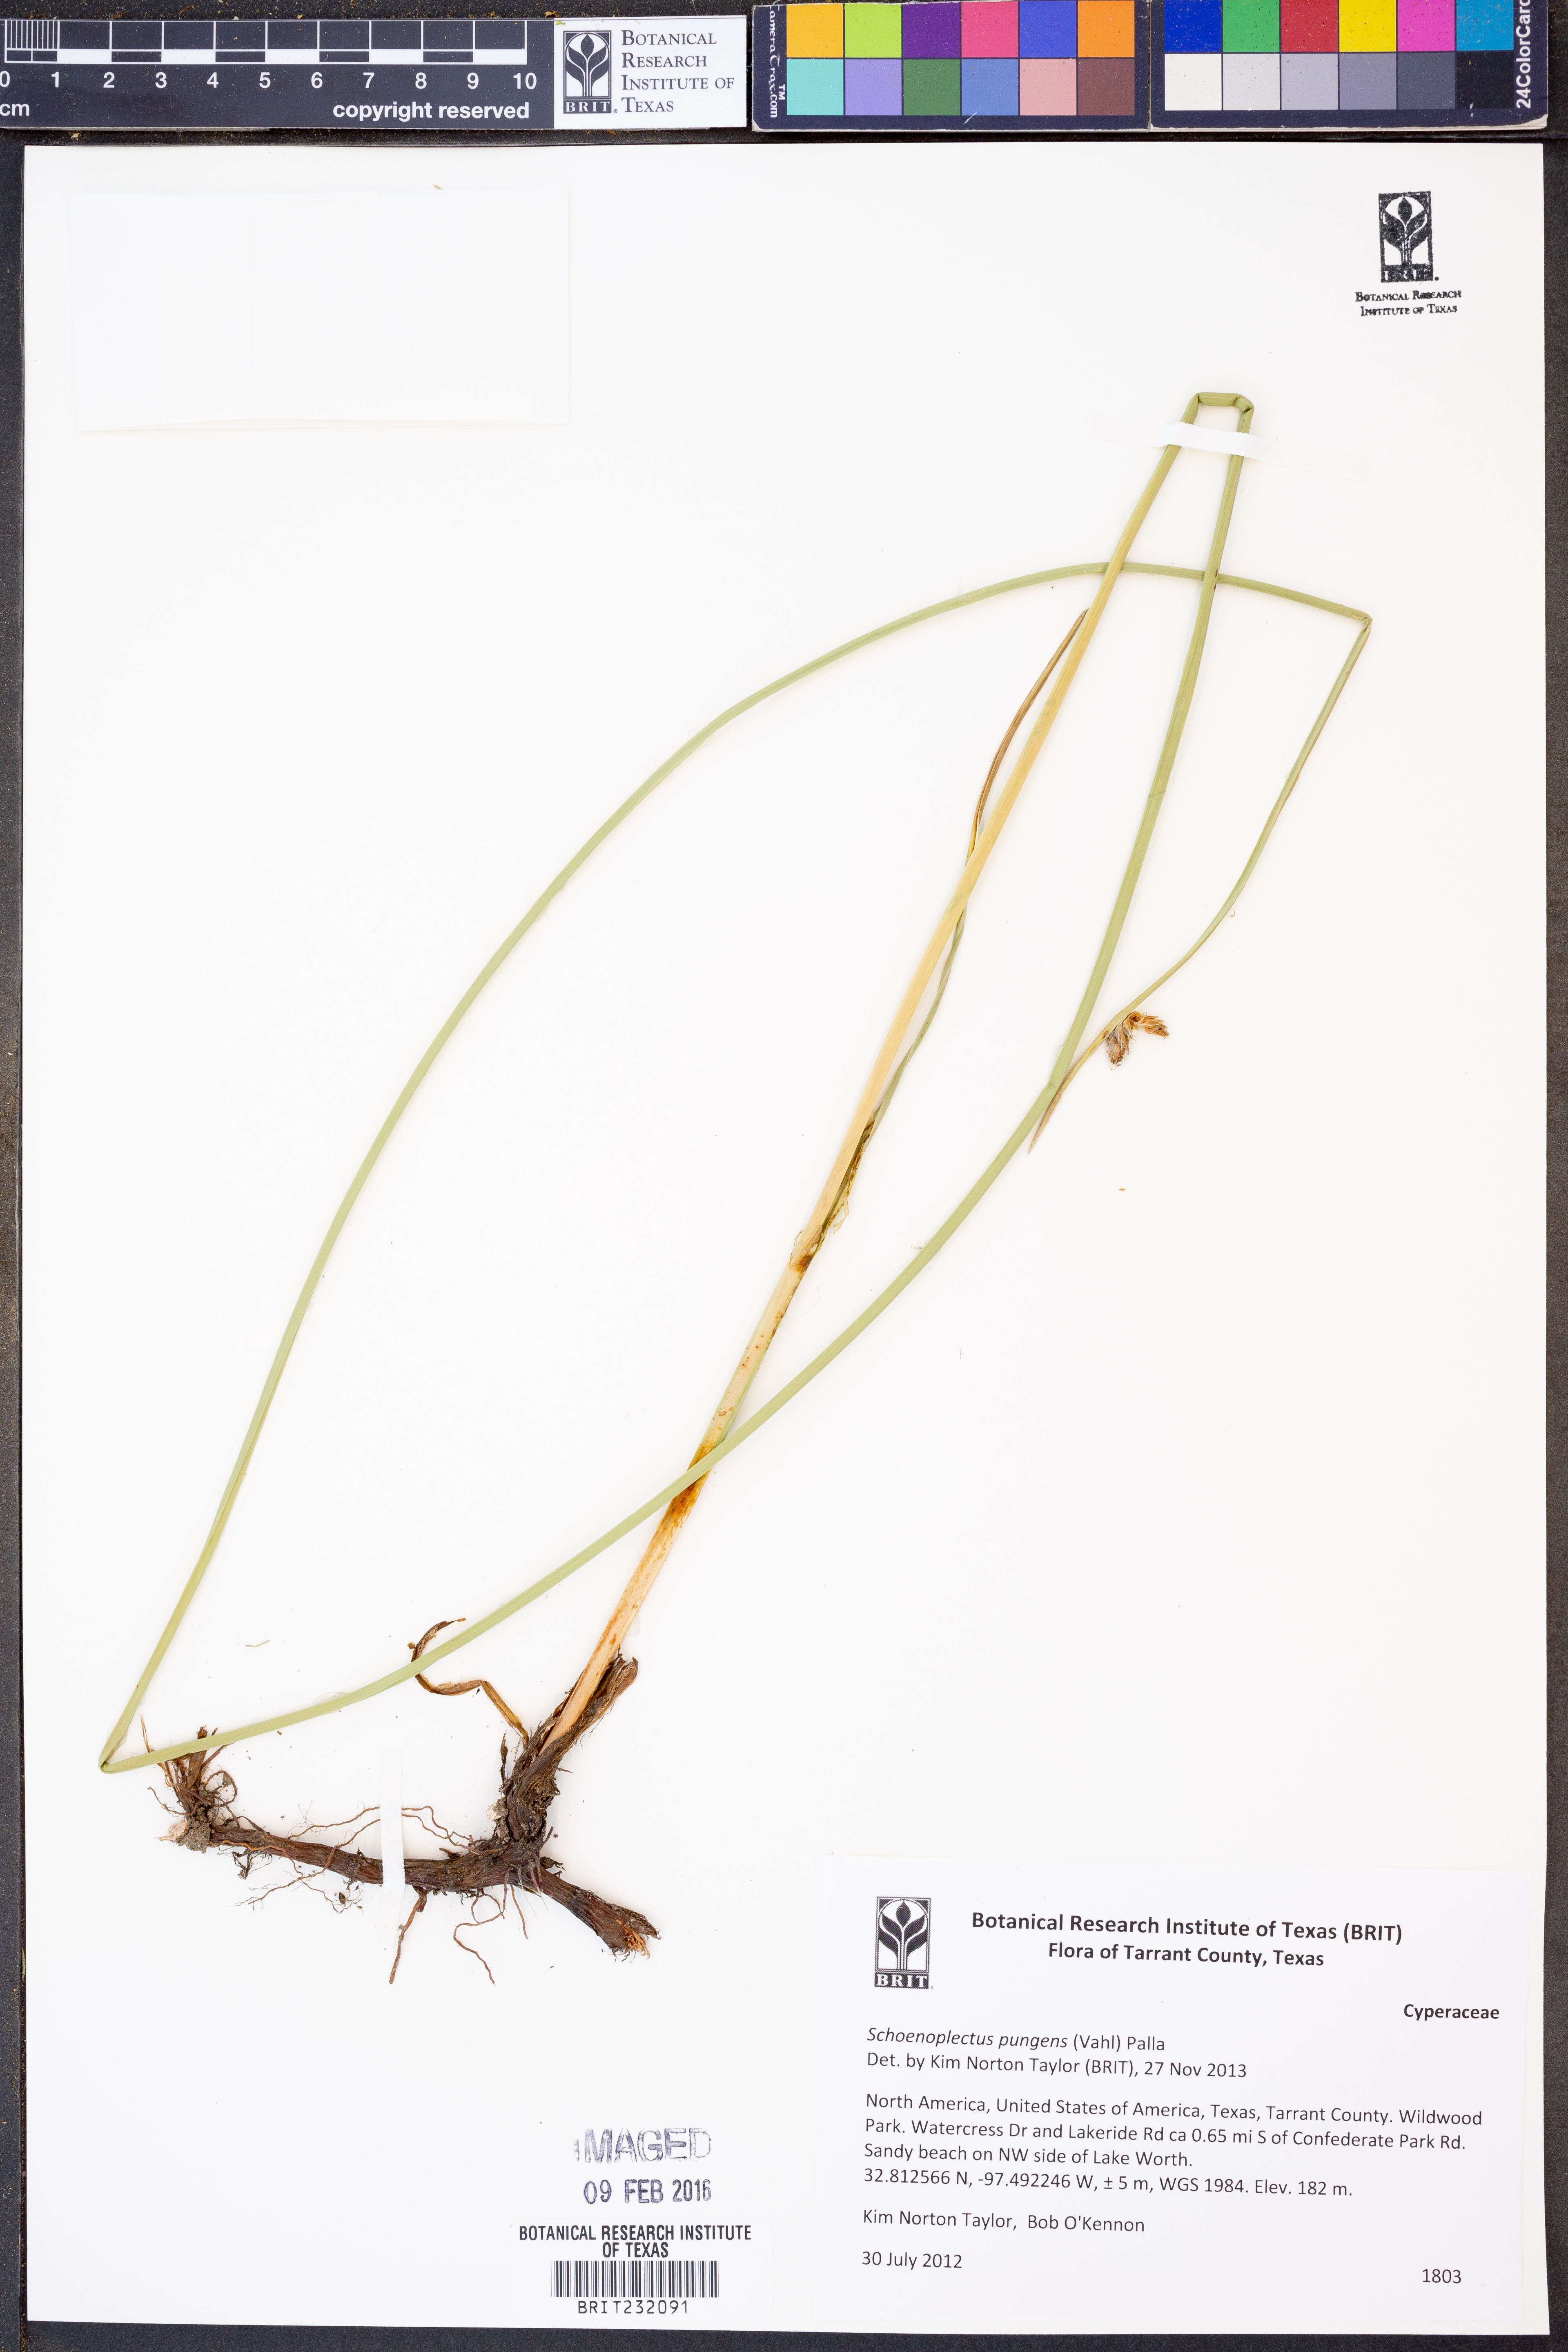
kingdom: Plantae
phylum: Tracheophyta
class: Liliopsida
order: Poales
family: Cyperaceae
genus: Schoenoplectus
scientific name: Schoenoplectus pungens
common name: Sharp club-rush
